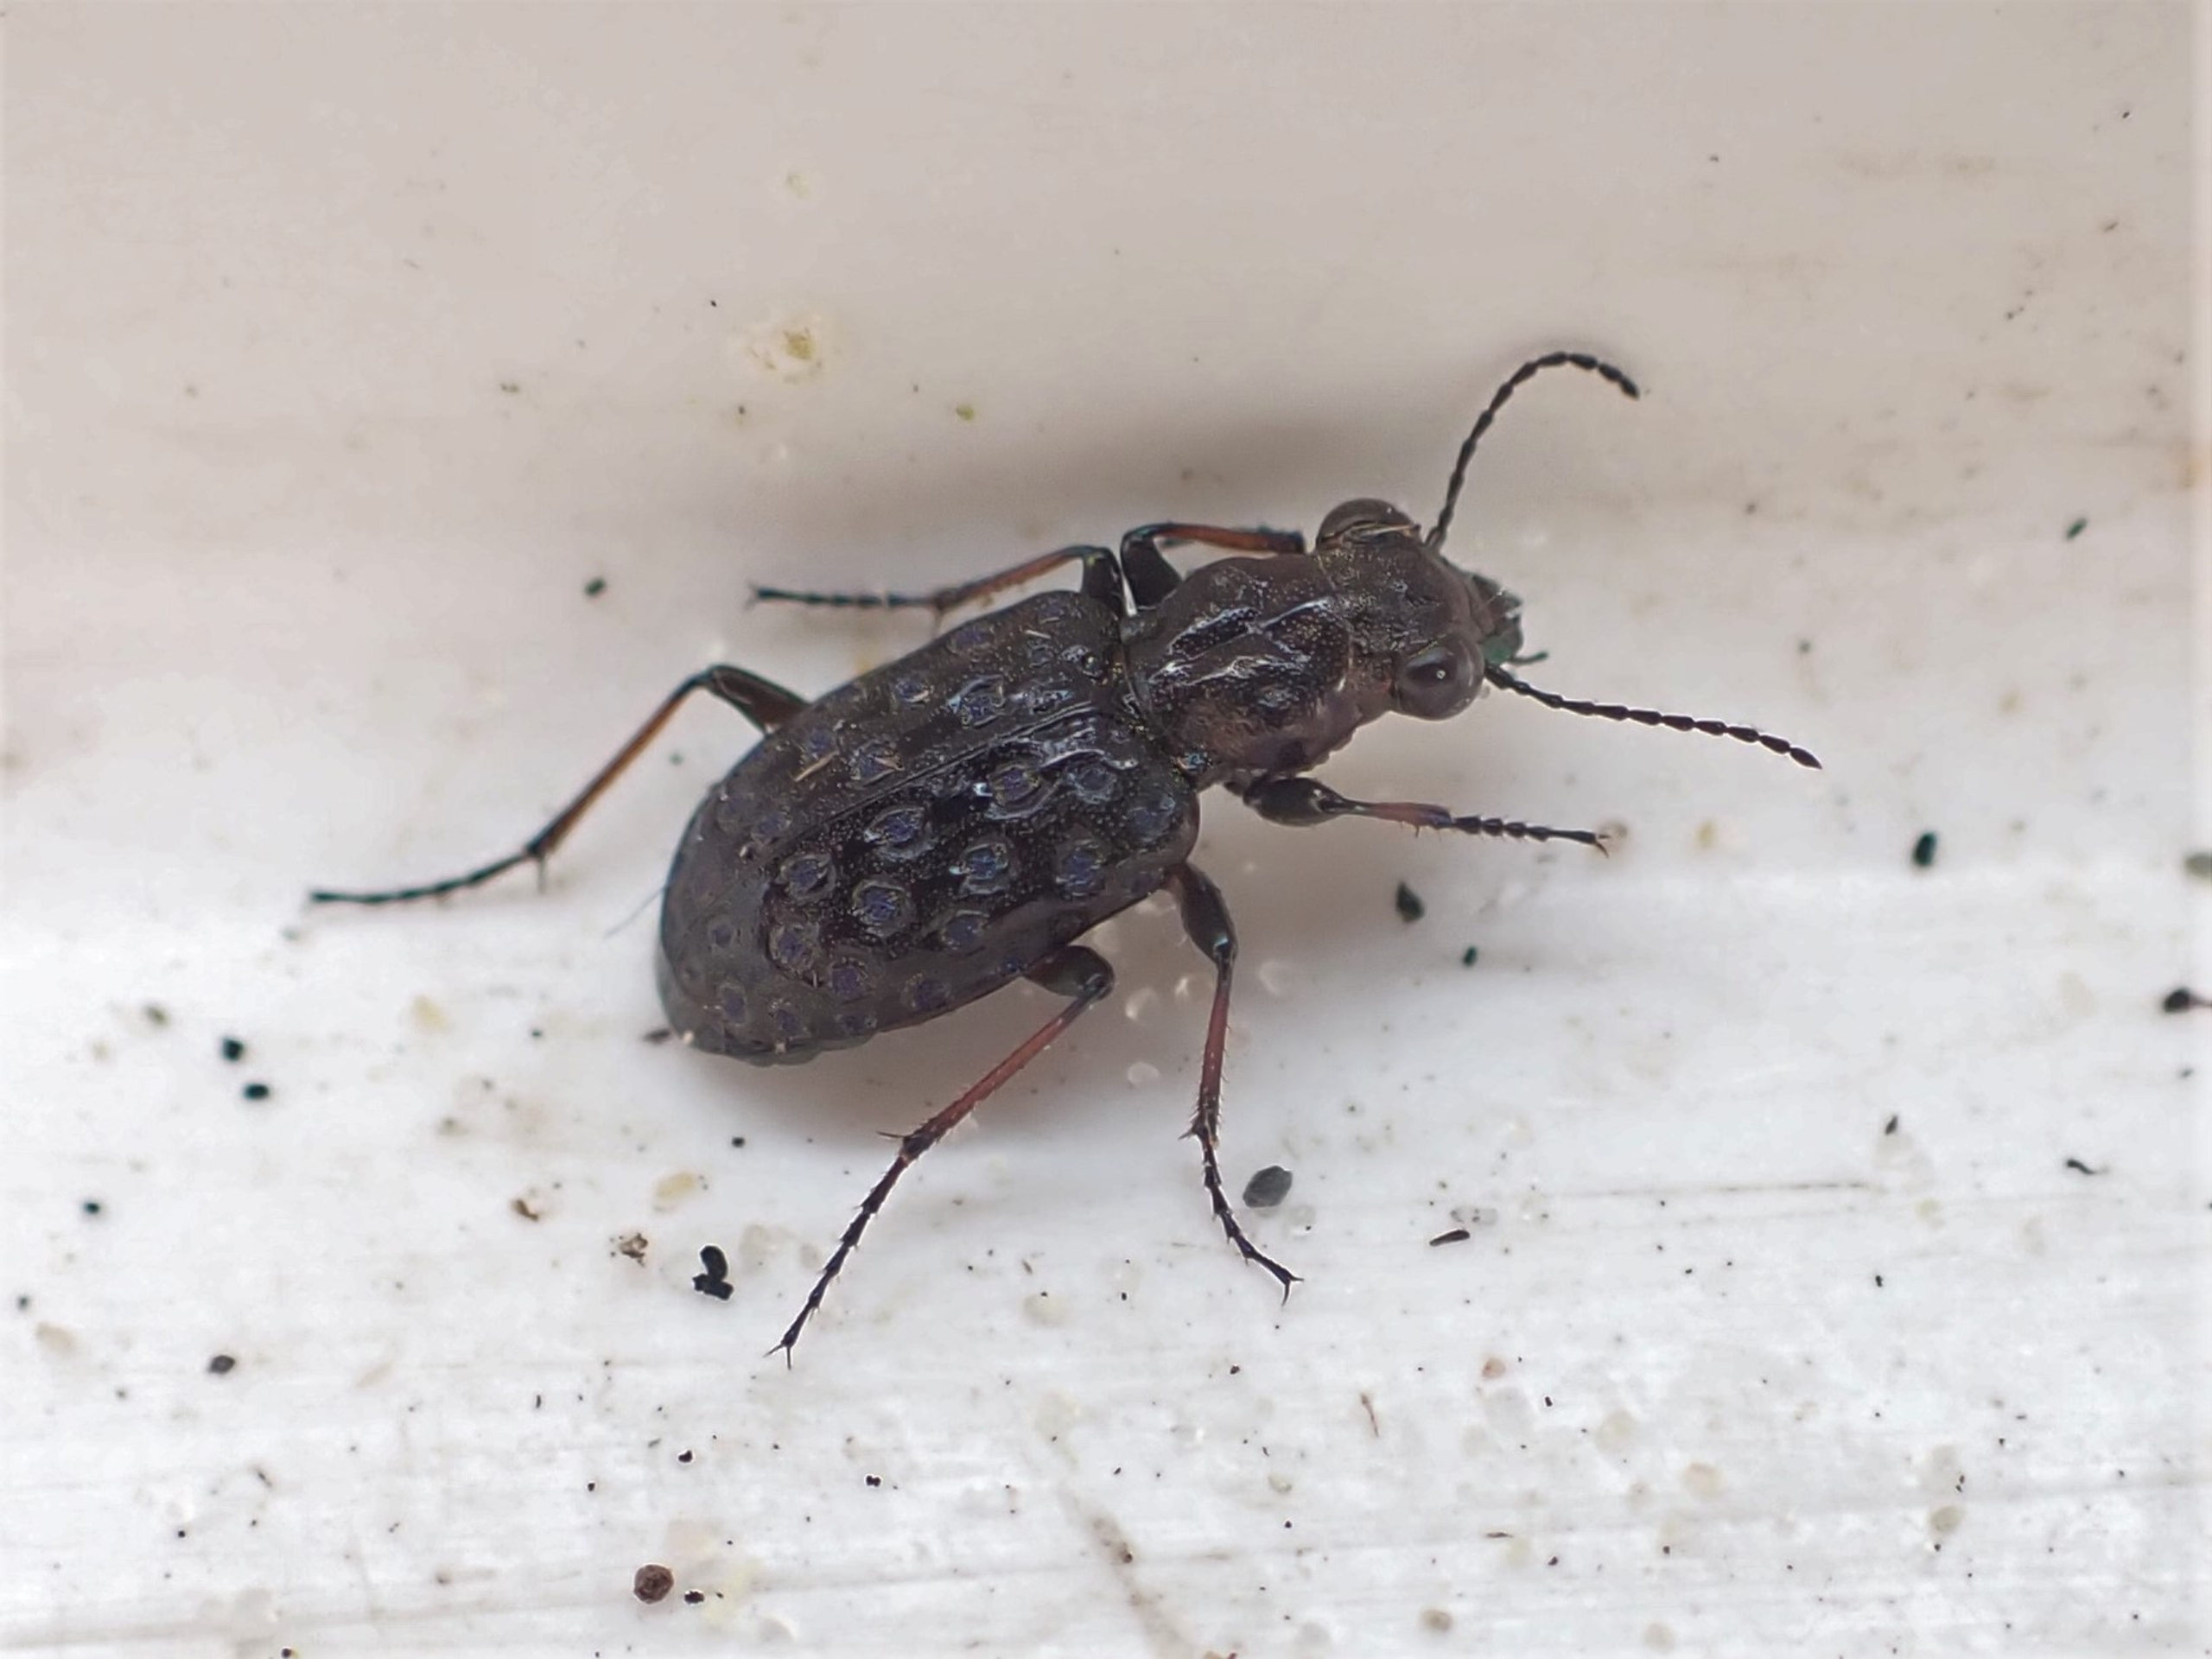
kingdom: Animalia
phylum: Arthropoda
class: Insecta
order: Coleoptera
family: Carabidae
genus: Elaphrus
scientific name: Elaphrus cupreus
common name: Kobberfarvet øjenløber
